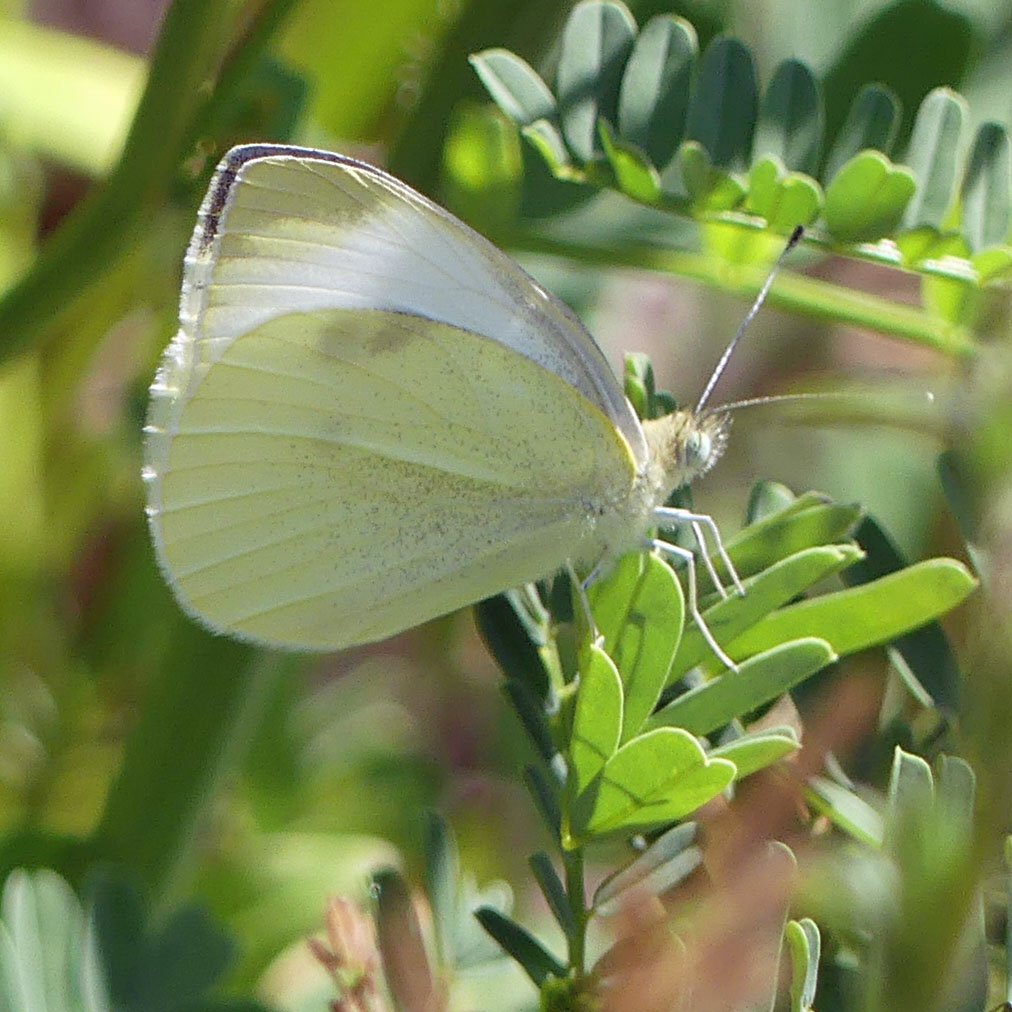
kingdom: Animalia
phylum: Arthropoda
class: Insecta
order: Lepidoptera
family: Pieridae
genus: Pieris
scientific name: Pieris rapae
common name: Cabbage White
